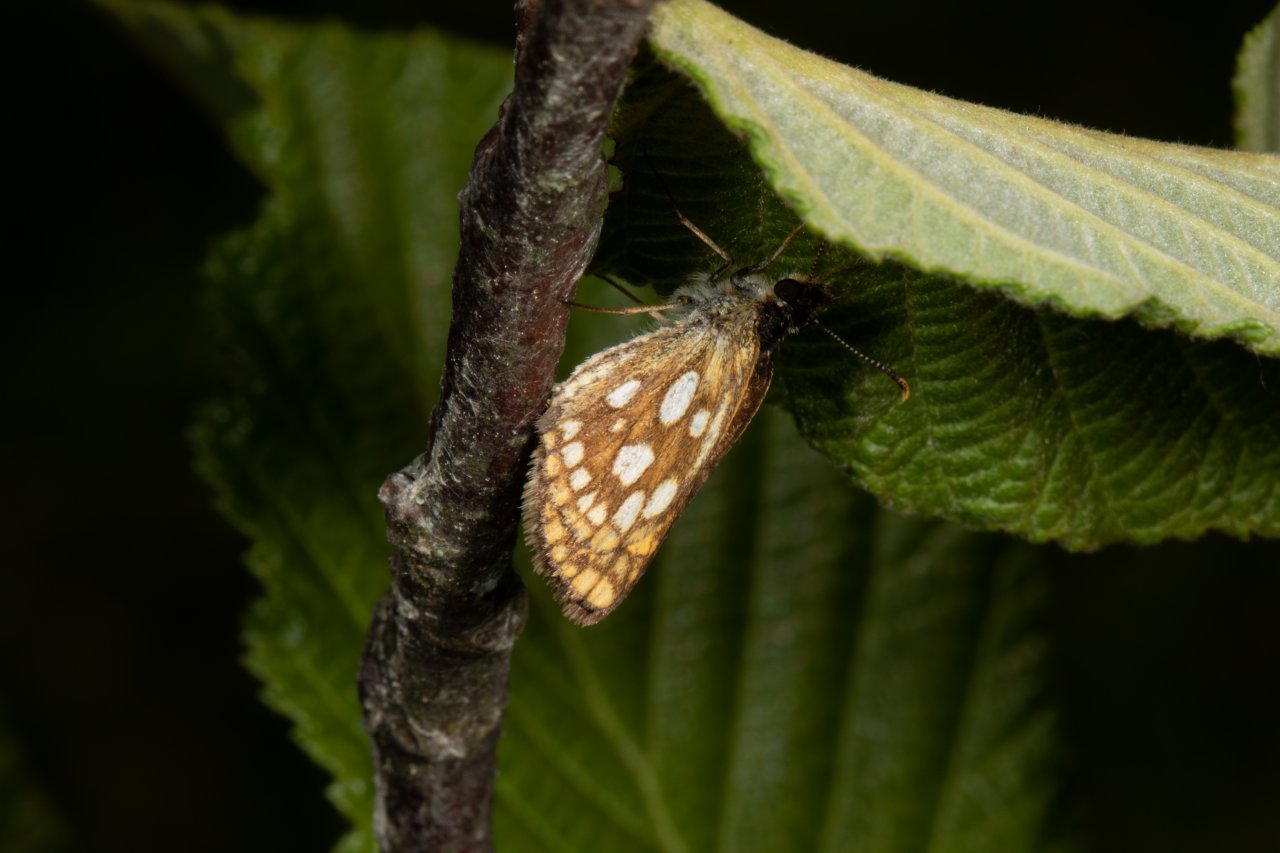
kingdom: Animalia
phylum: Arthropoda
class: Insecta
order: Lepidoptera
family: Hesperiidae
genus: Carterocephalus
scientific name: Carterocephalus palaemon
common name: Chequered Skipper
